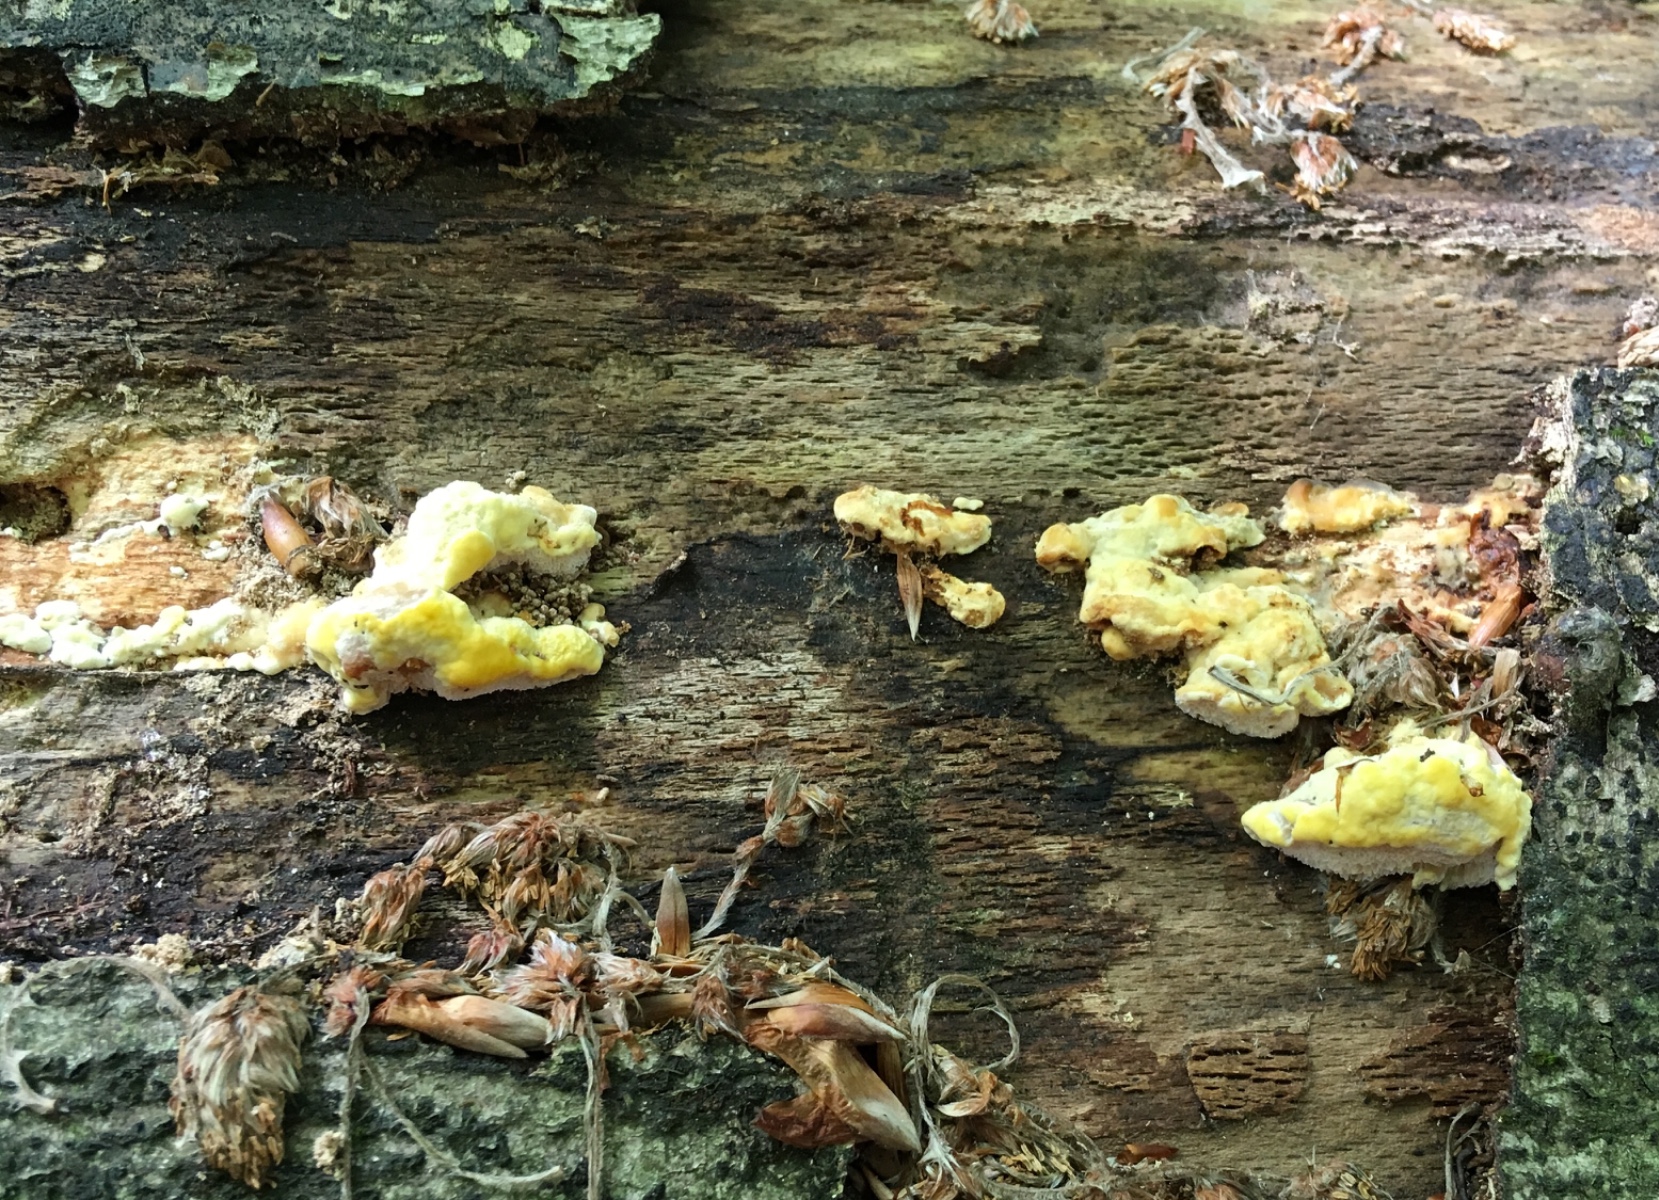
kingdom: Fungi
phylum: Basidiomycota
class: Agaricomycetes
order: Polyporales
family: Steccherinaceae
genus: Antrodiella
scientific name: Antrodiella serpula
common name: gulrandet elastikporesvamp
